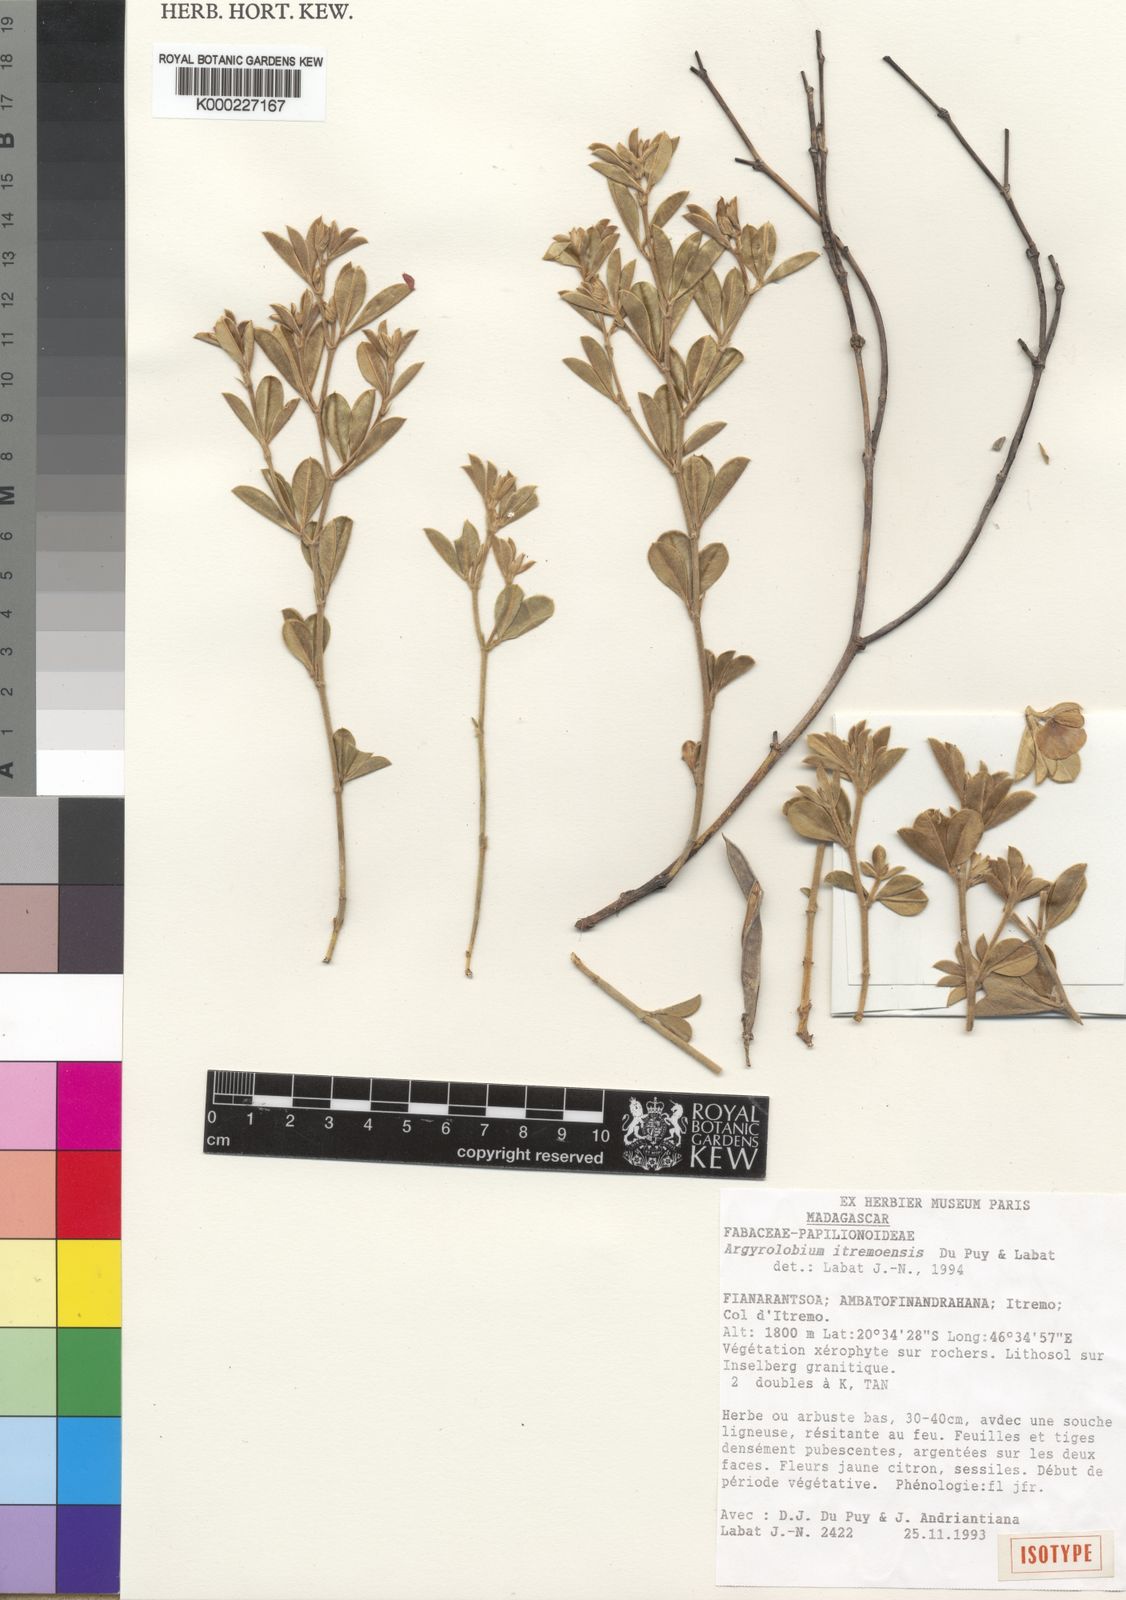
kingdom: Plantae
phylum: Tracheophyta
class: Magnoliopsida
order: Fabales
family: Fabaceae
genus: Argyrolobium
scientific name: Argyrolobium
